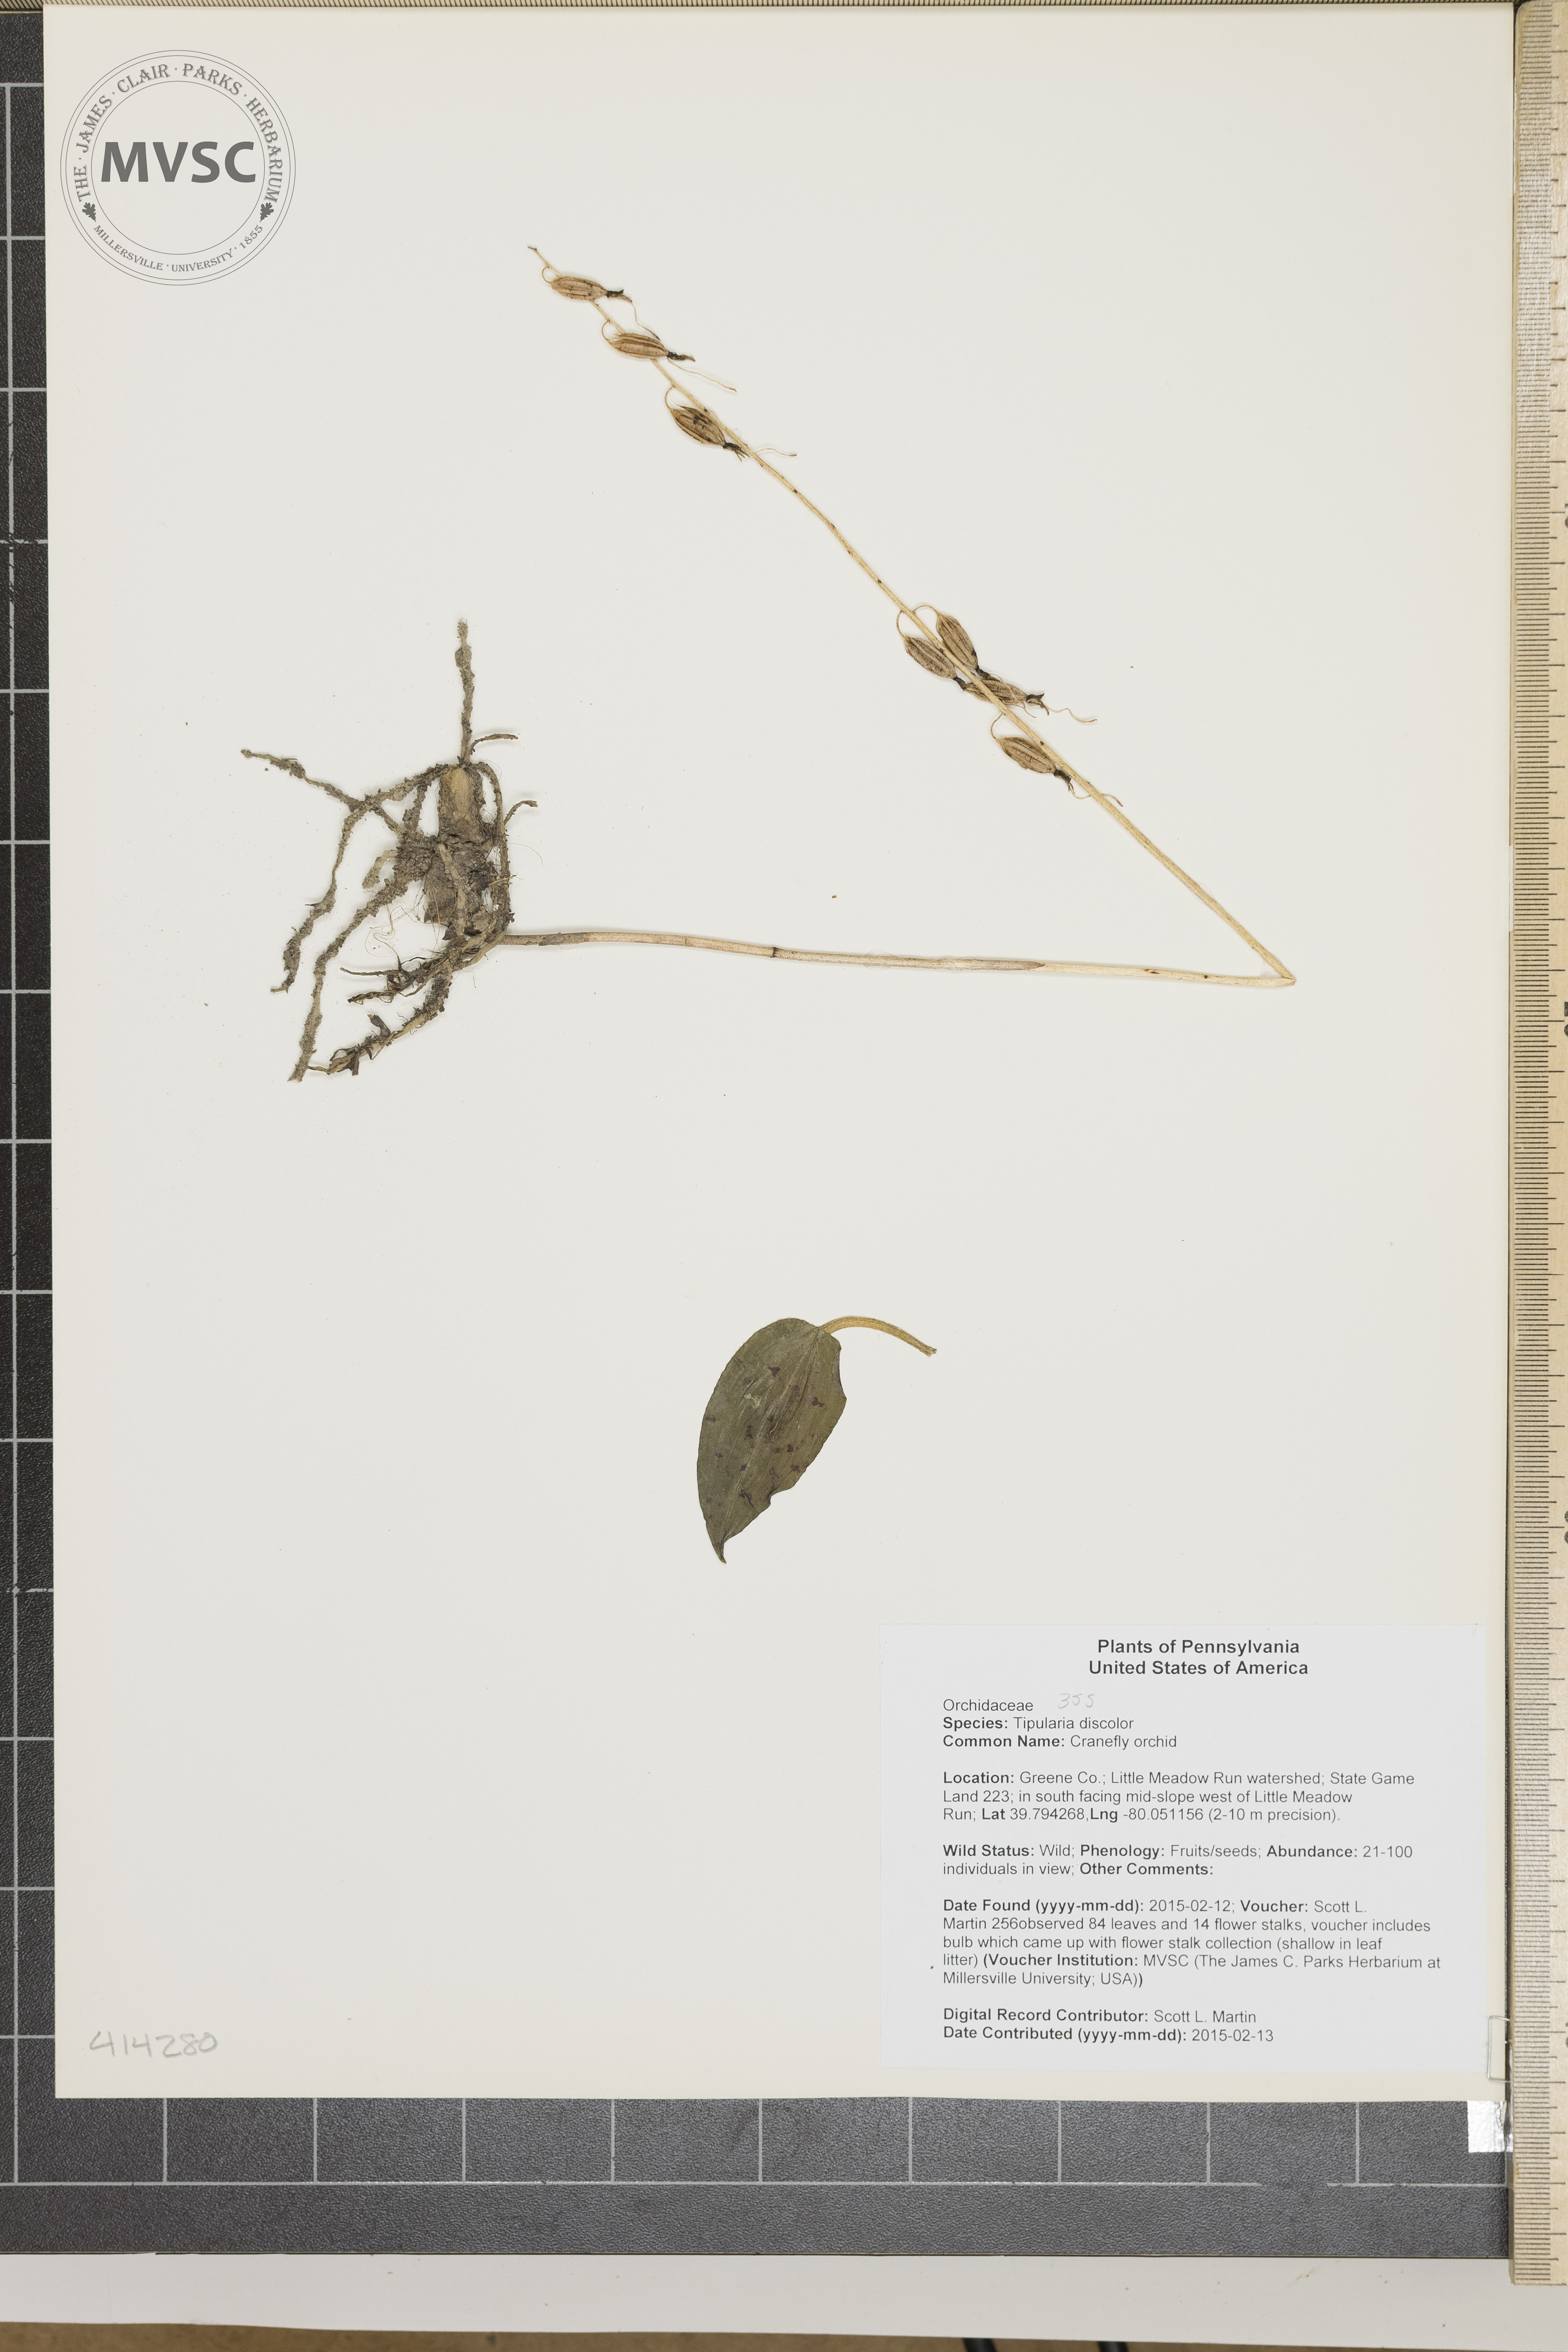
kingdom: Plantae
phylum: Tracheophyta
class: Liliopsida
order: Asparagales
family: Orchidaceae
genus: Tipularia
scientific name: Tipularia discolor
